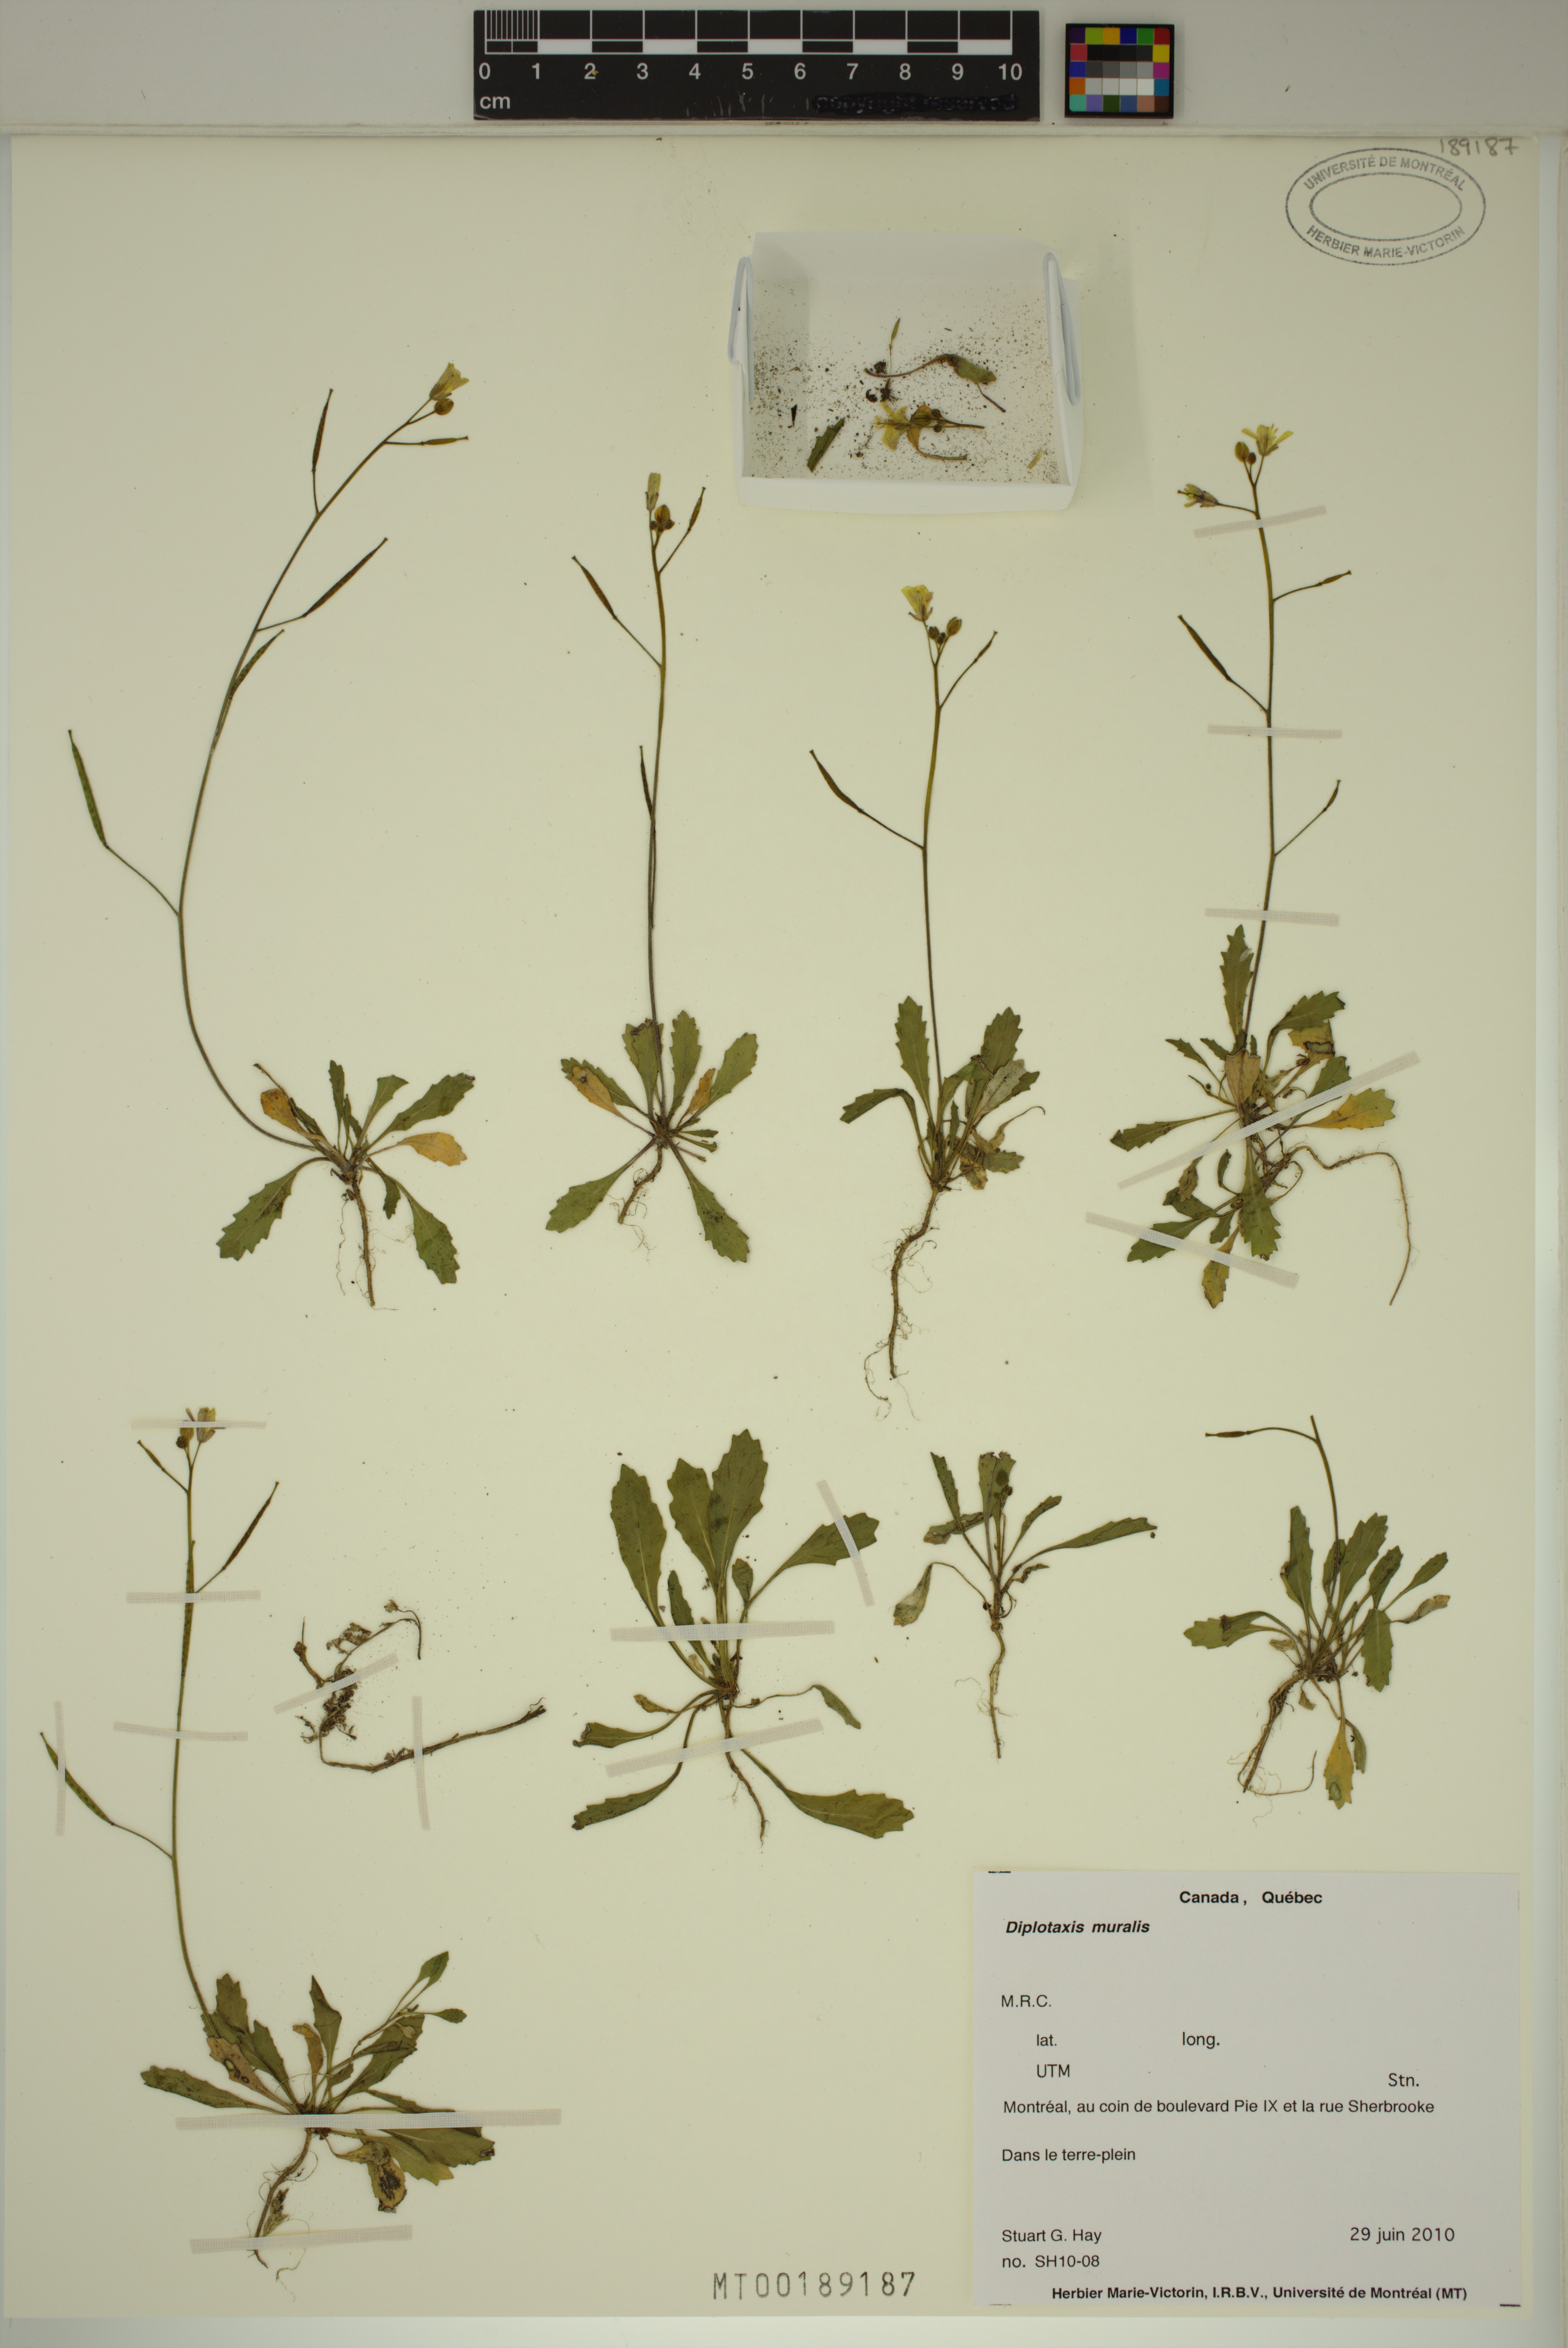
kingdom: Plantae
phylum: Tracheophyta
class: Magnoliopsida
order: Brassicales
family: Brassicaceae
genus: Diplotaxis
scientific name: Diplotaxis muralis
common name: Annual wall-rocket
